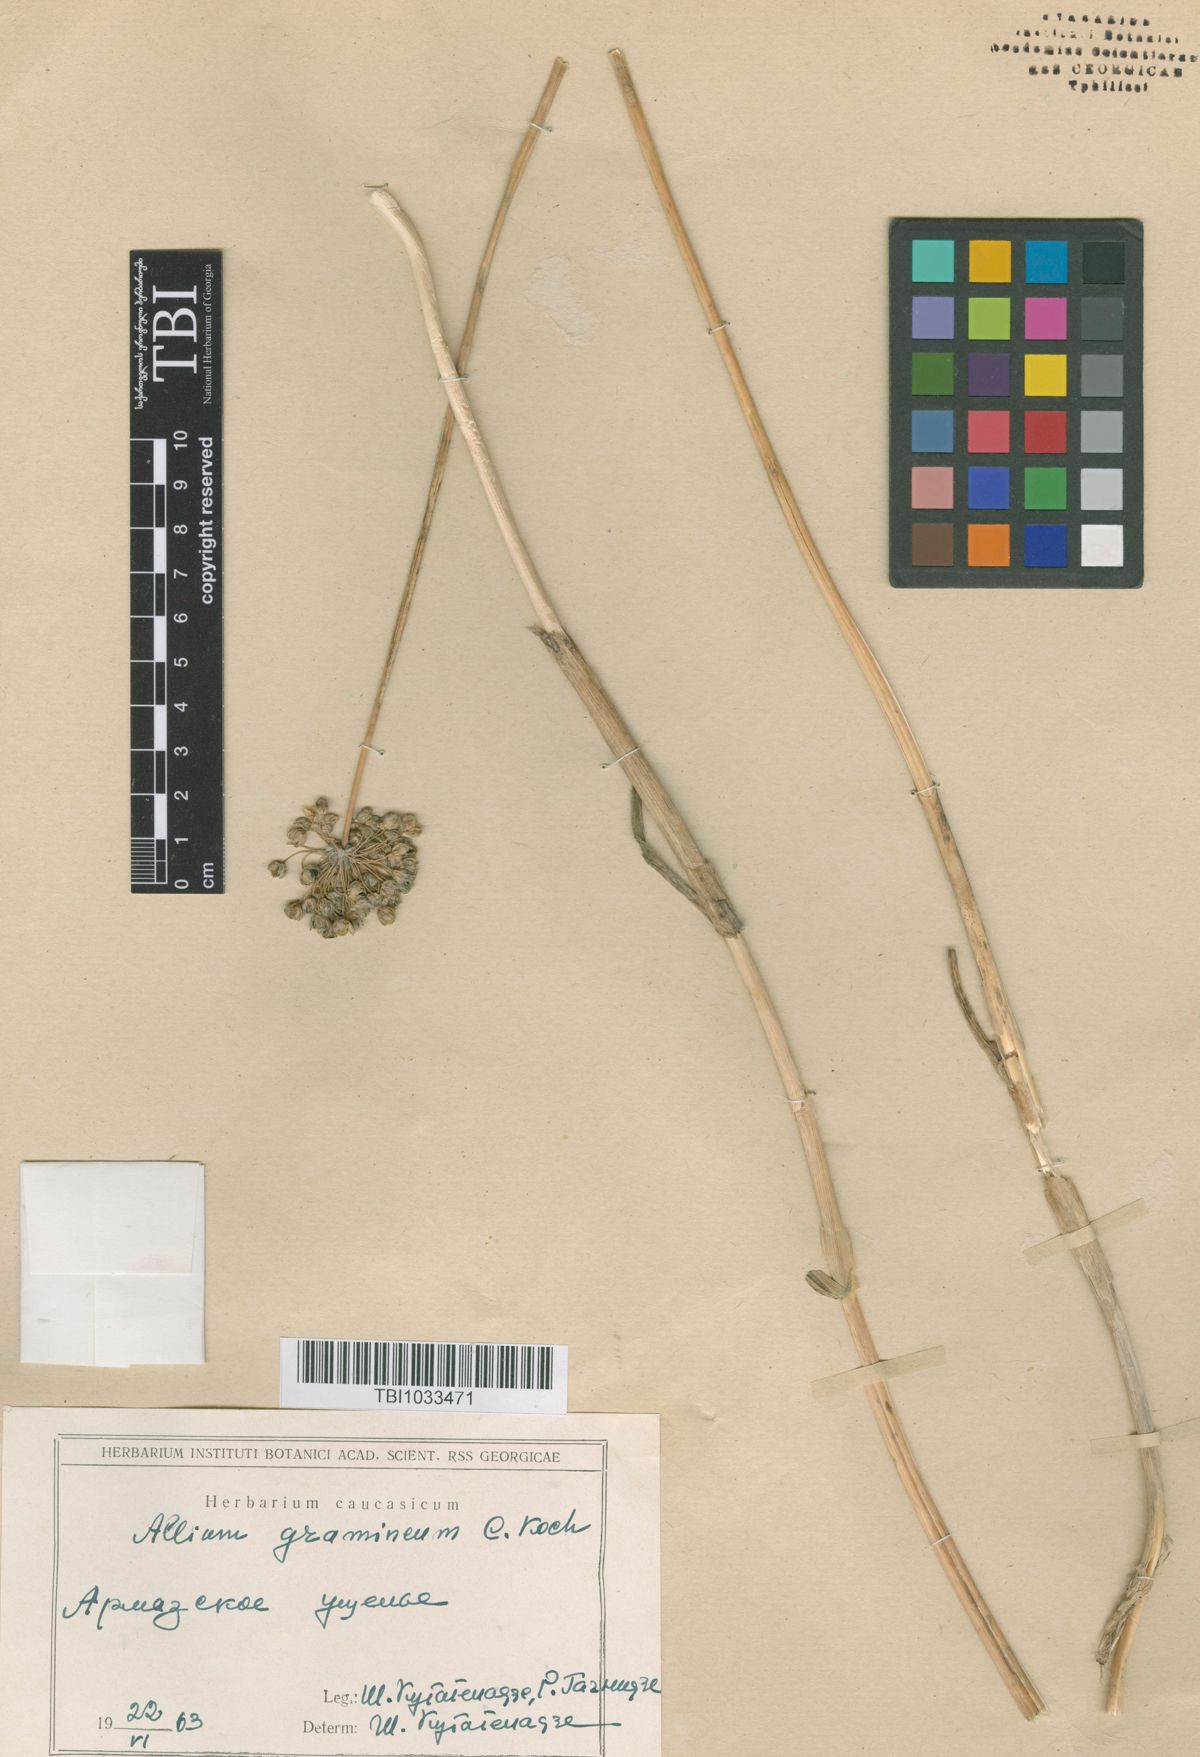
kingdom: Plantae
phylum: Tracheophyta
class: Liliopsida
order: Asparagales
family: Amaryllidaceae
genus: Allium
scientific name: Allium gramineum
